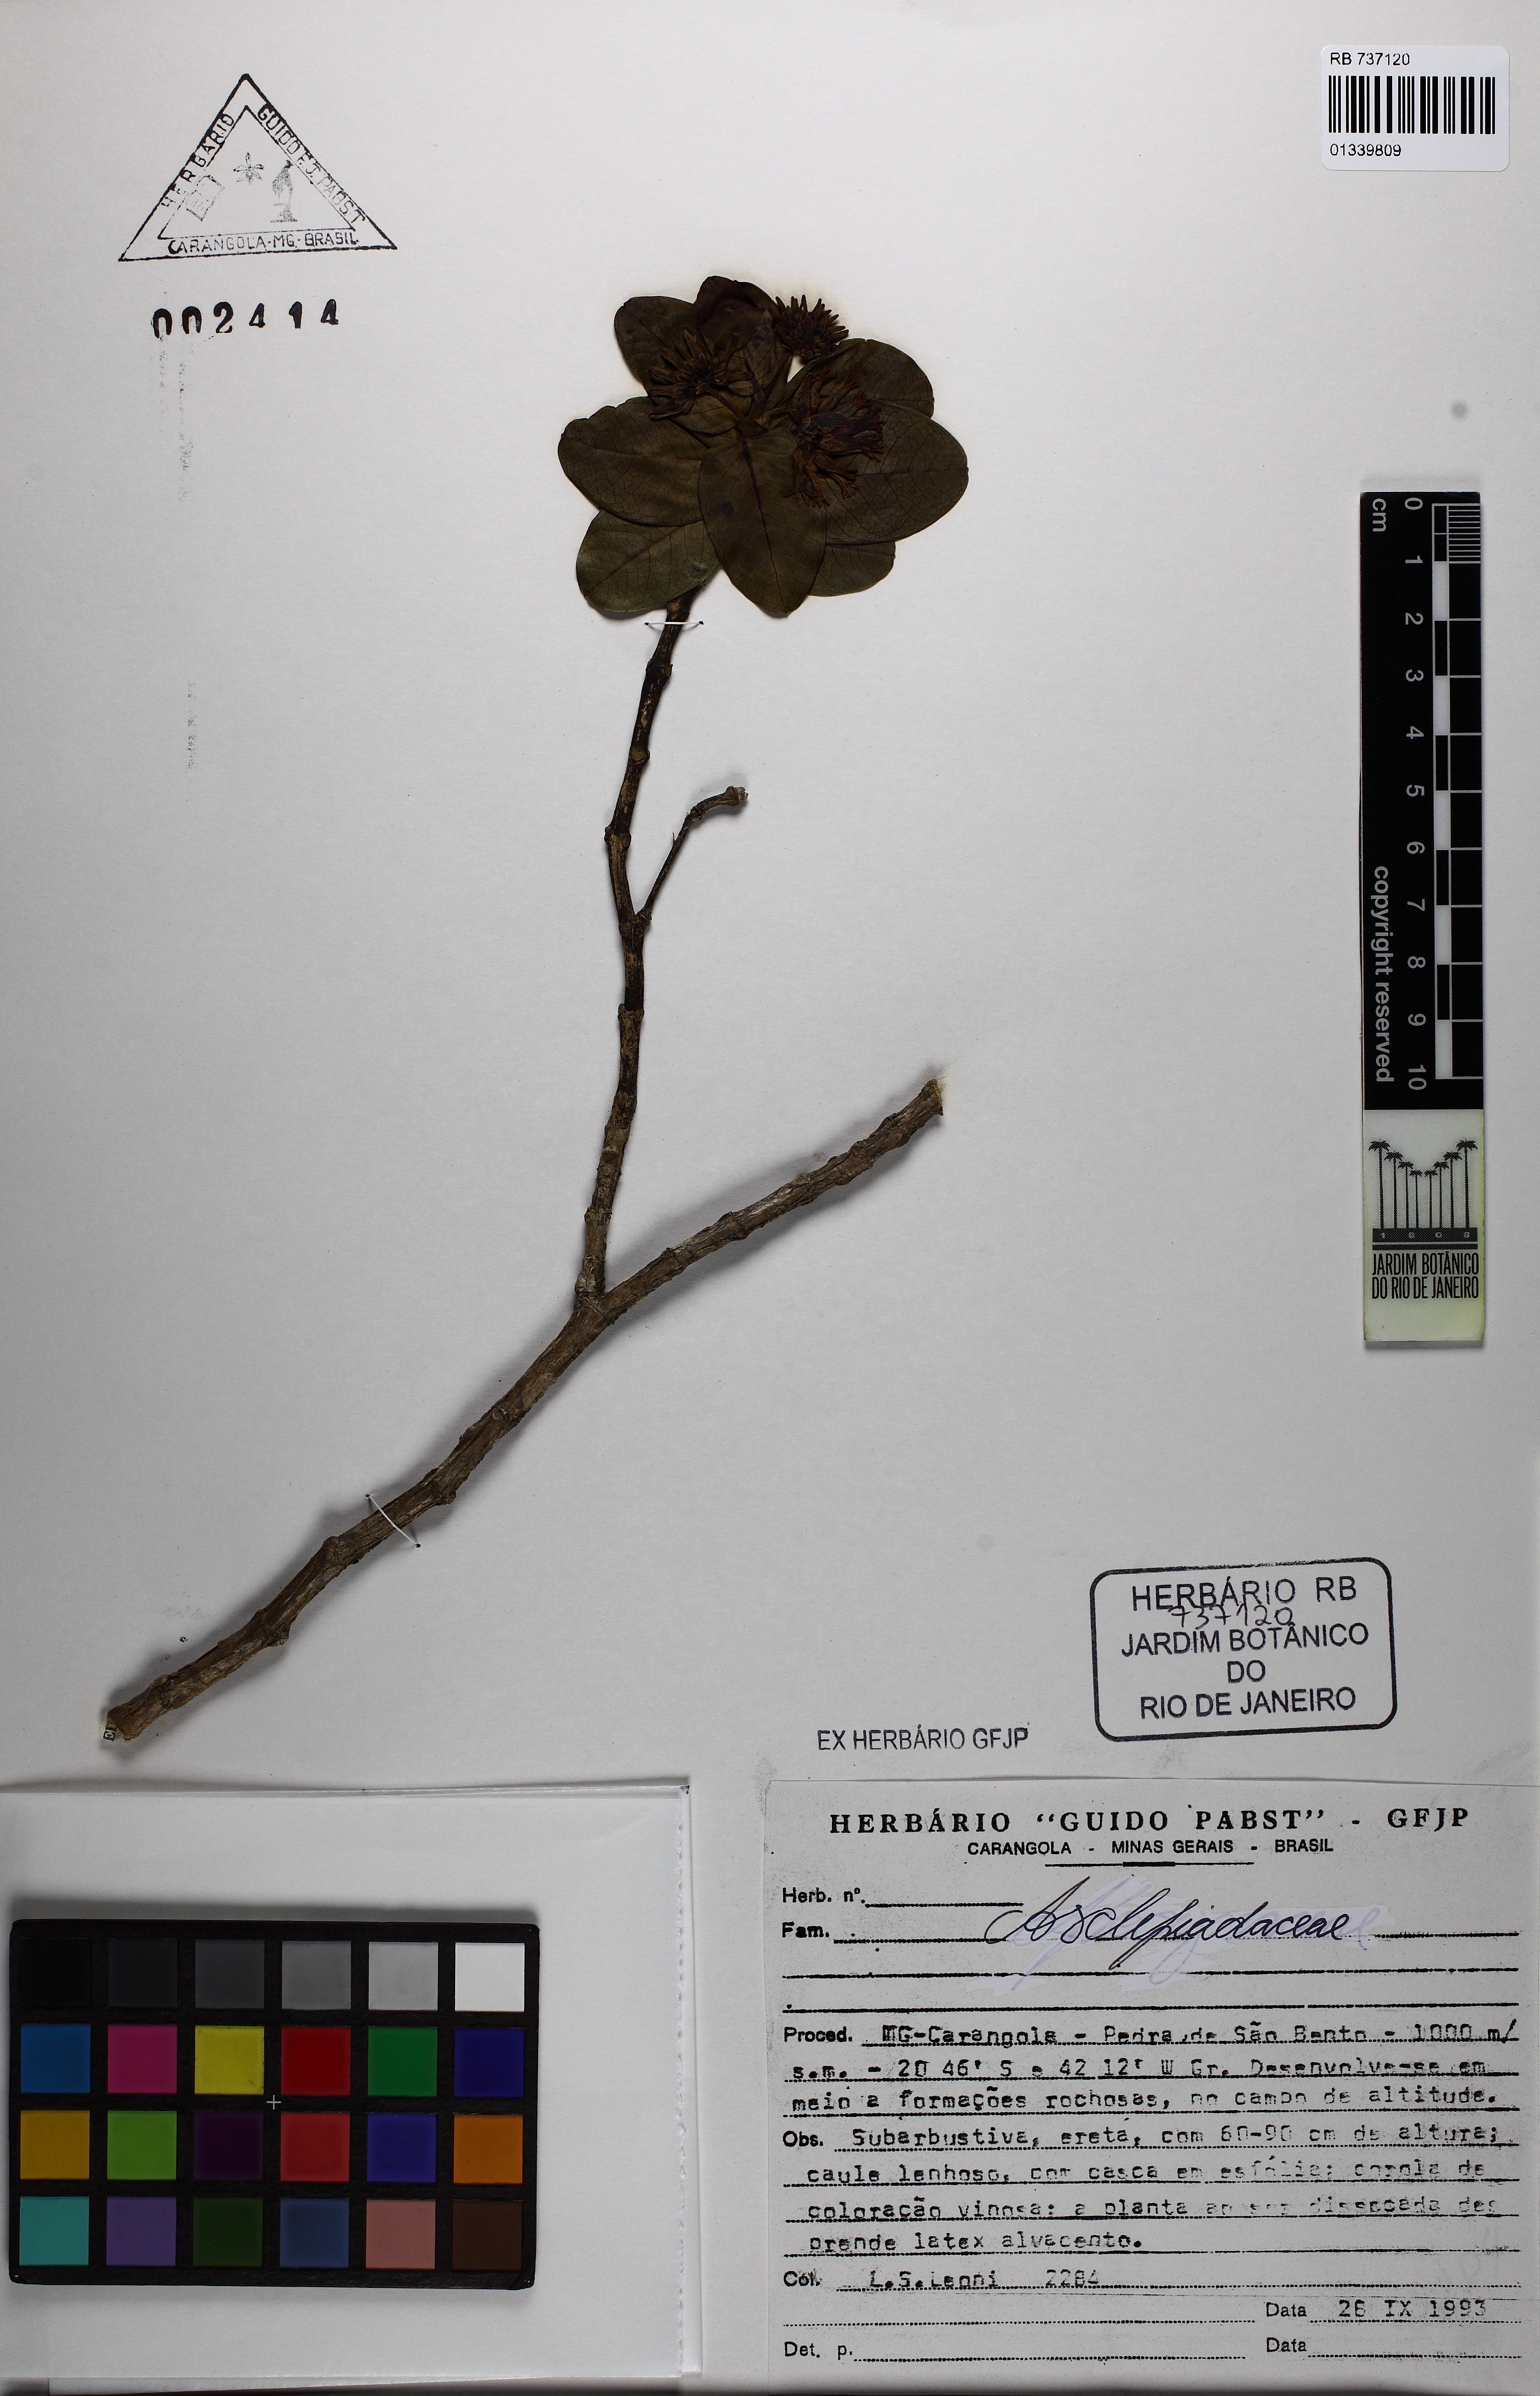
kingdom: Plantae
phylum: Tracheophyta
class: Magnoliopsida
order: Gentianales
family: Apocynaceae
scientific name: Apocynaceae
